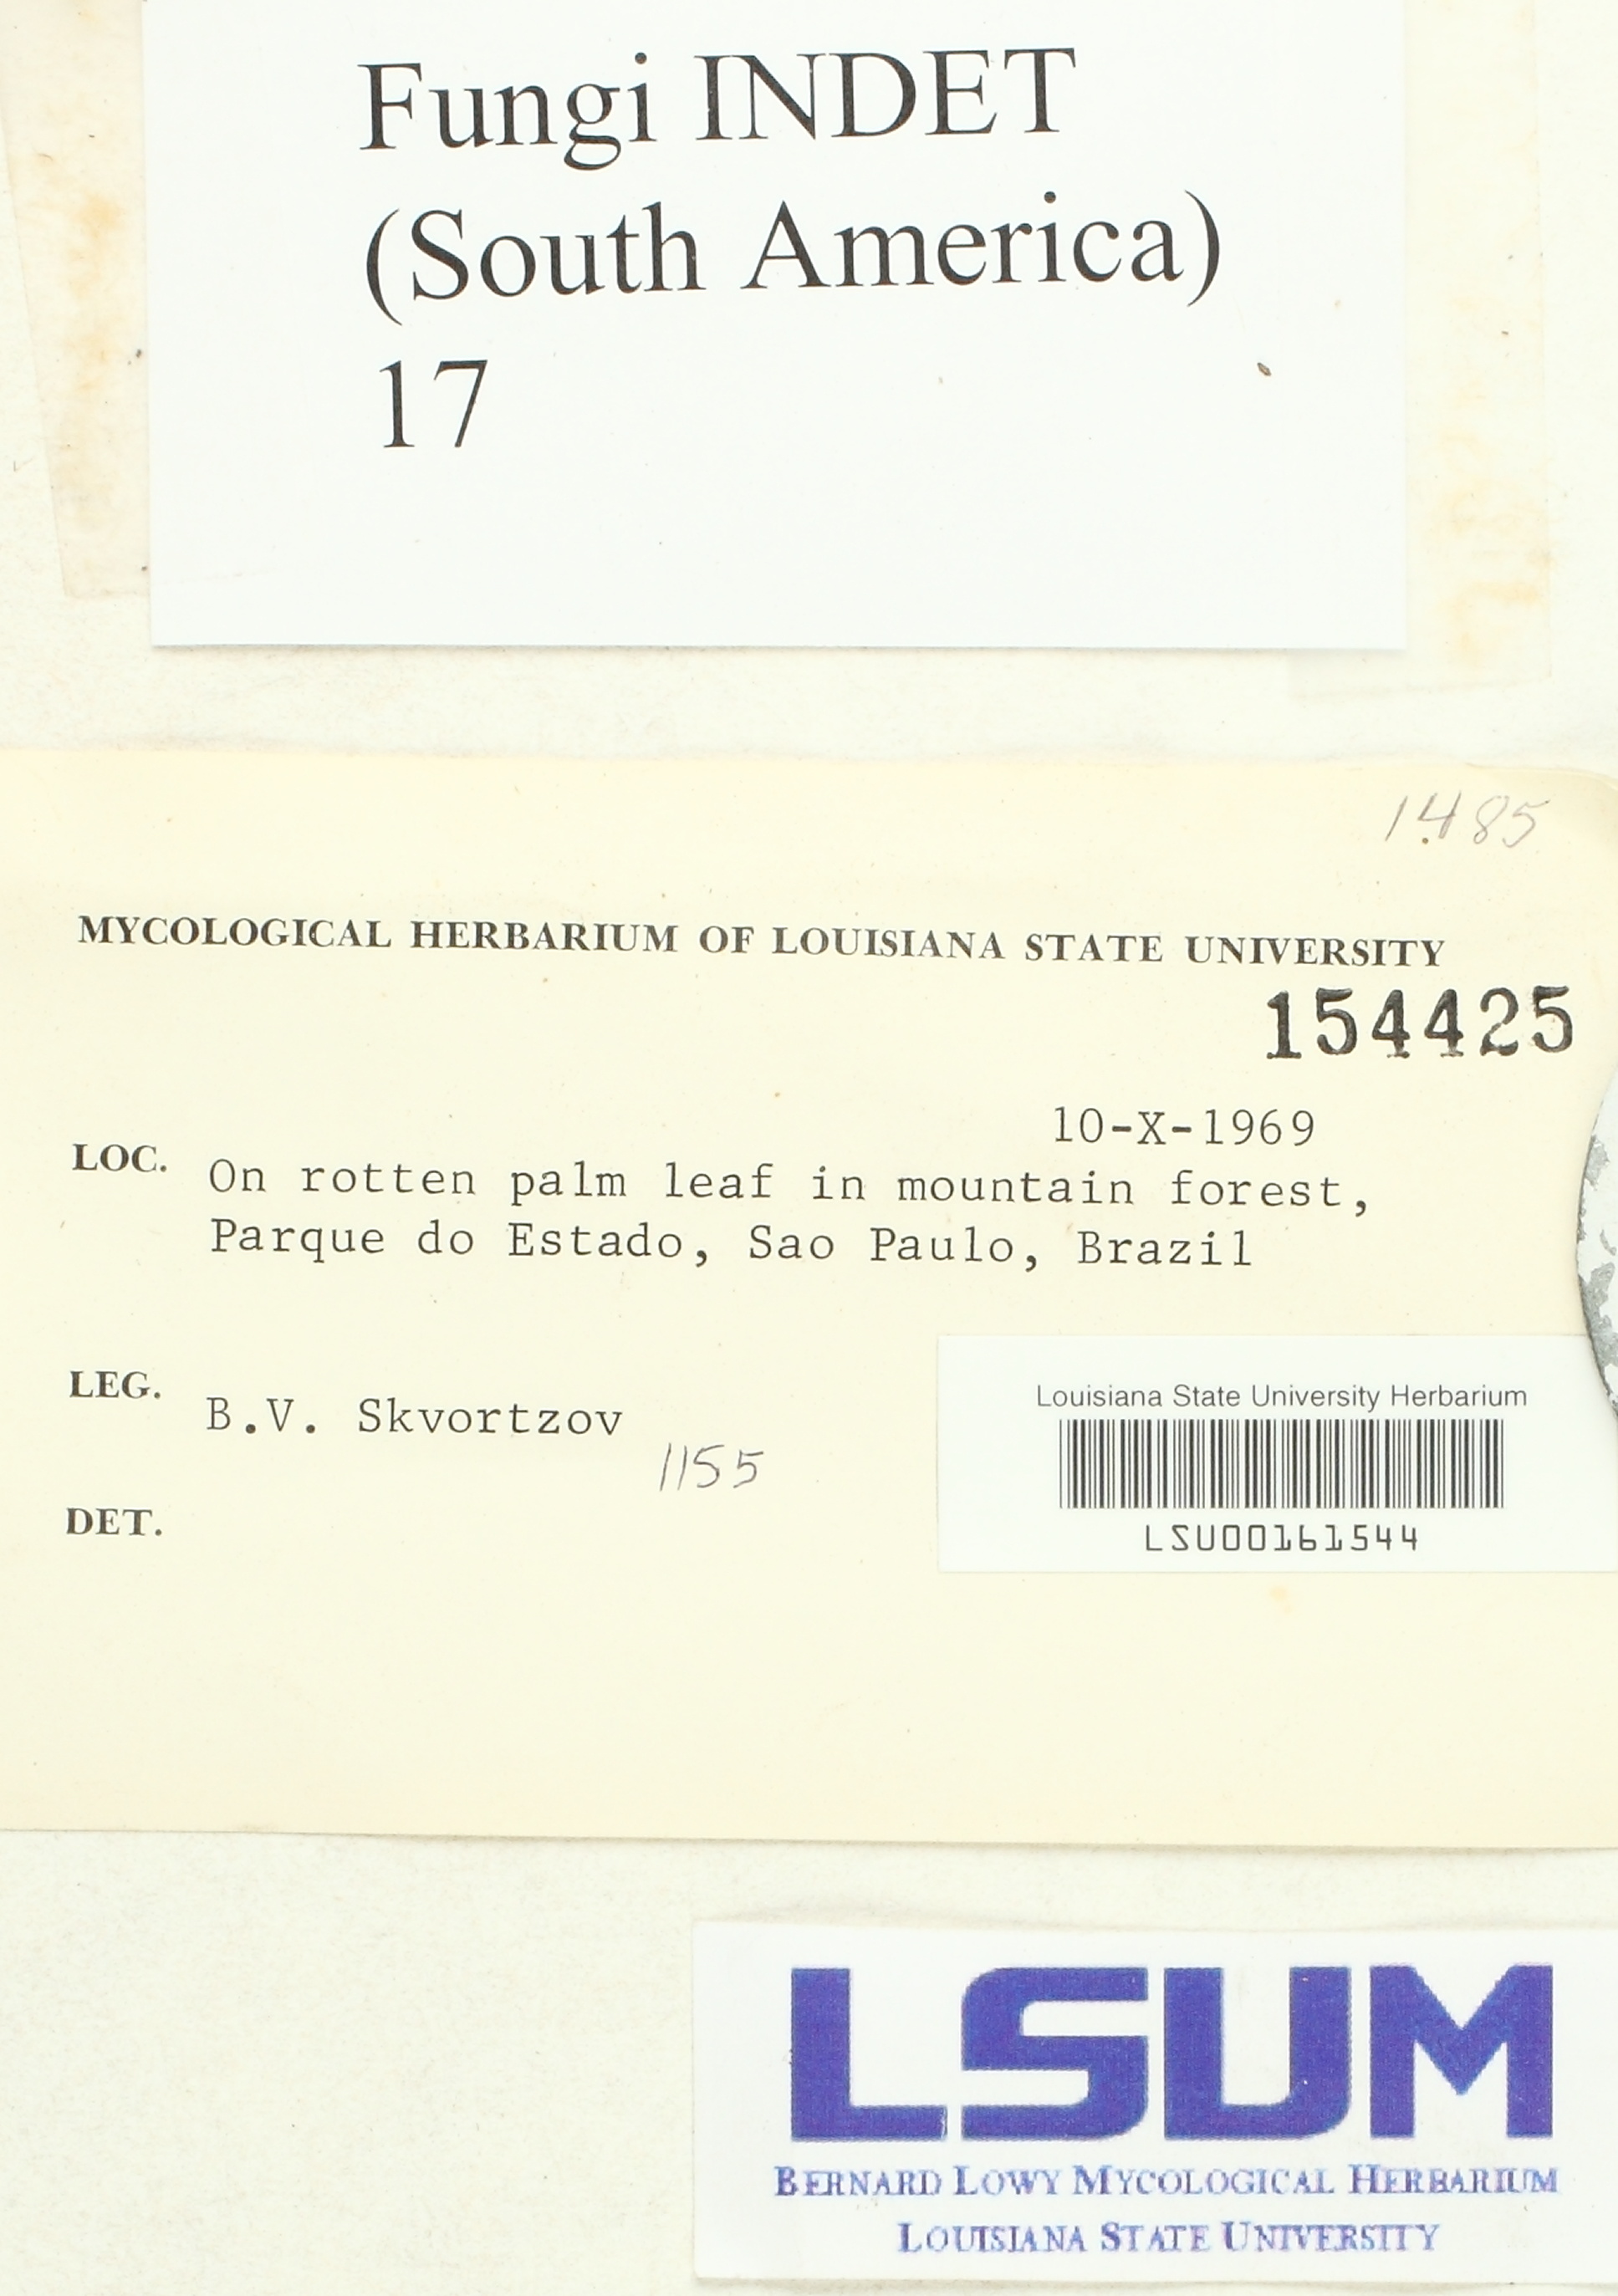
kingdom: Fungi
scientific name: Fungi
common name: Fungi
